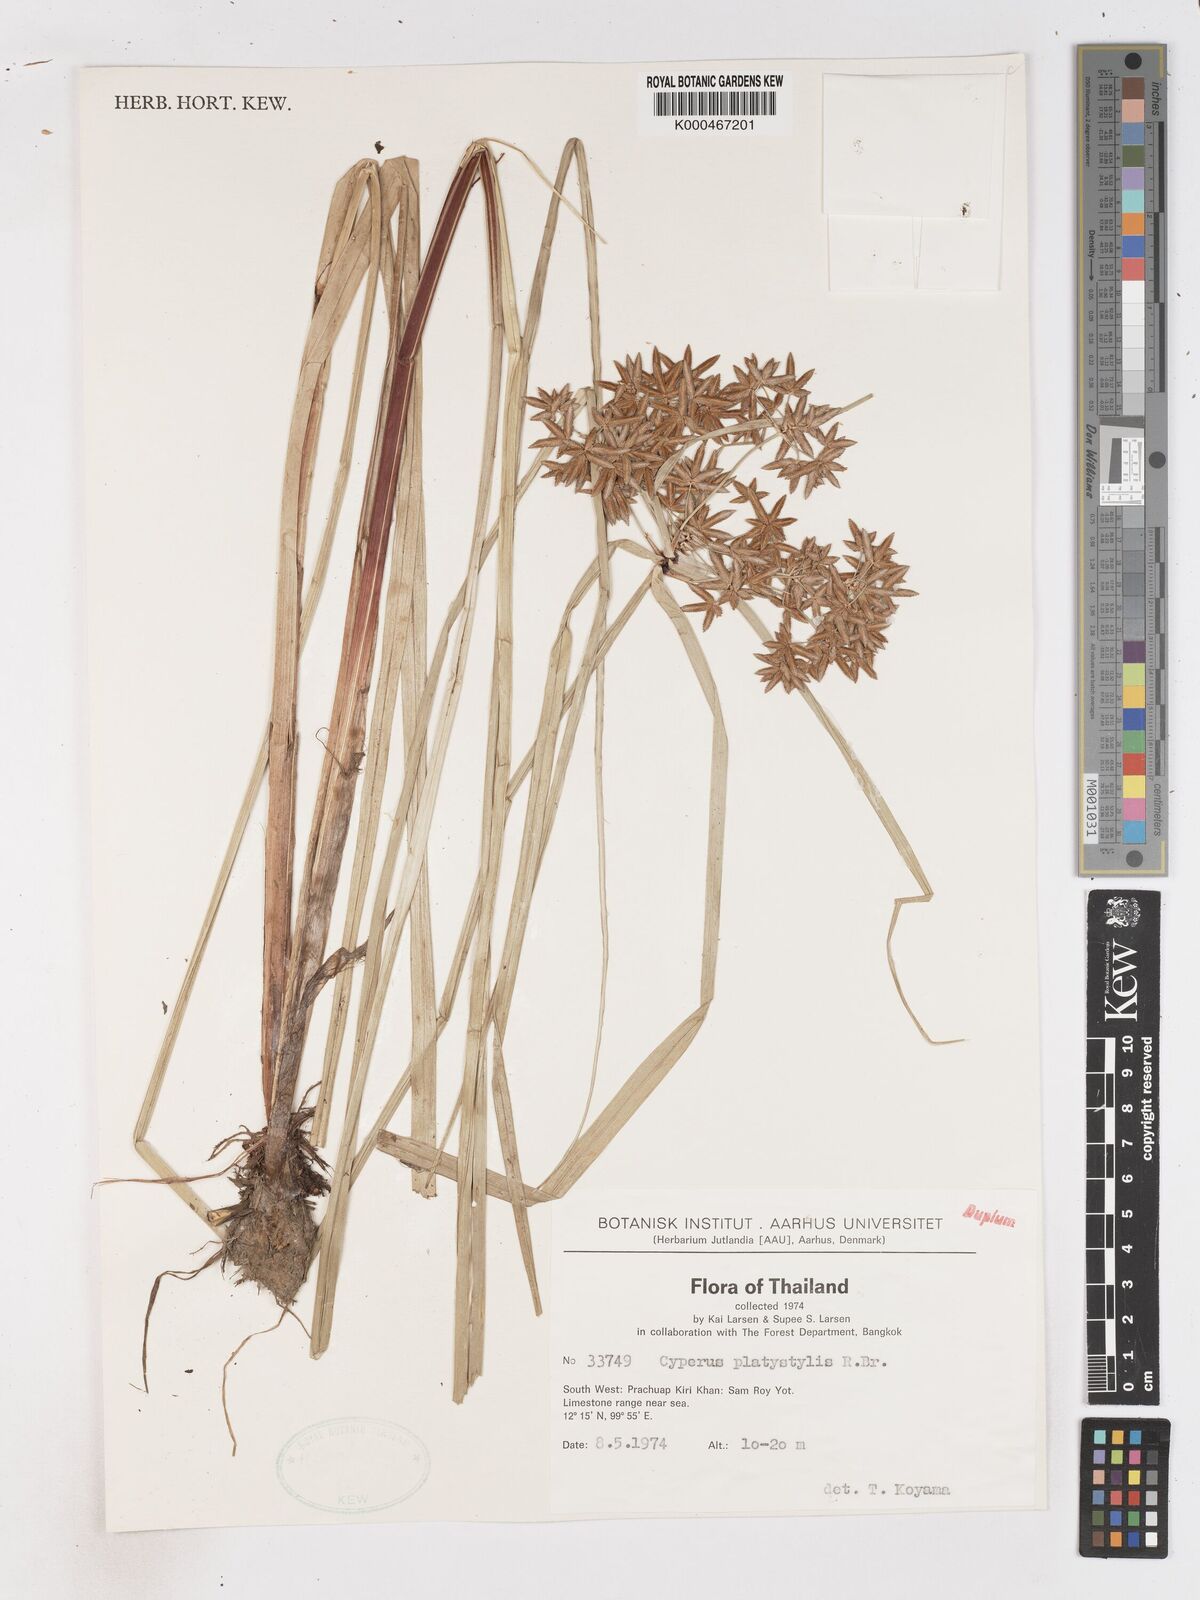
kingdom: Plantae
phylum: Tracheophyta
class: Liliopsida
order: Poales
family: Cyperaceae
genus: Cyperus
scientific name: Cyperus platystylis
